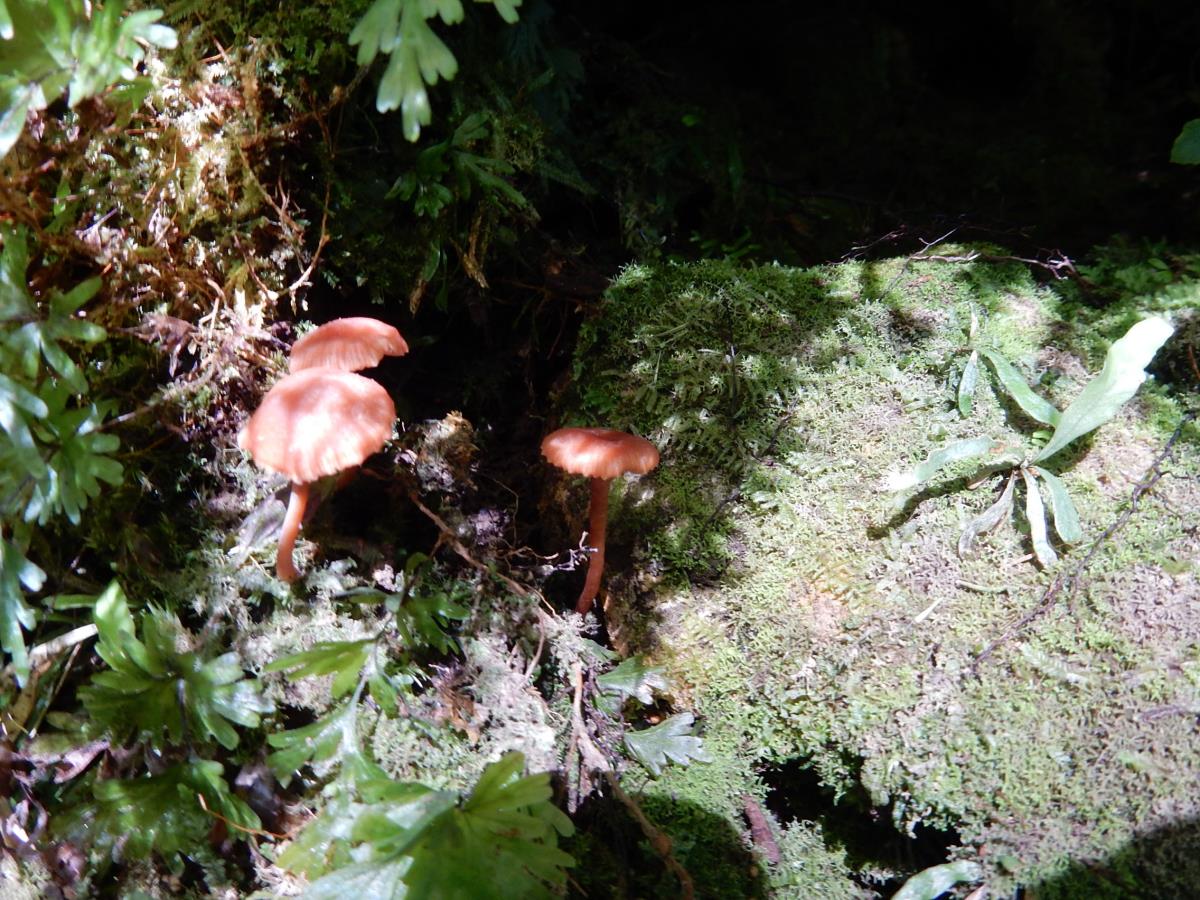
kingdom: Fungi
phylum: Basidiomycota
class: Agaricomycetes
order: Agaricales
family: Hydnangiaceae
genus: Laccaria
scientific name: Laccaria glabripes
